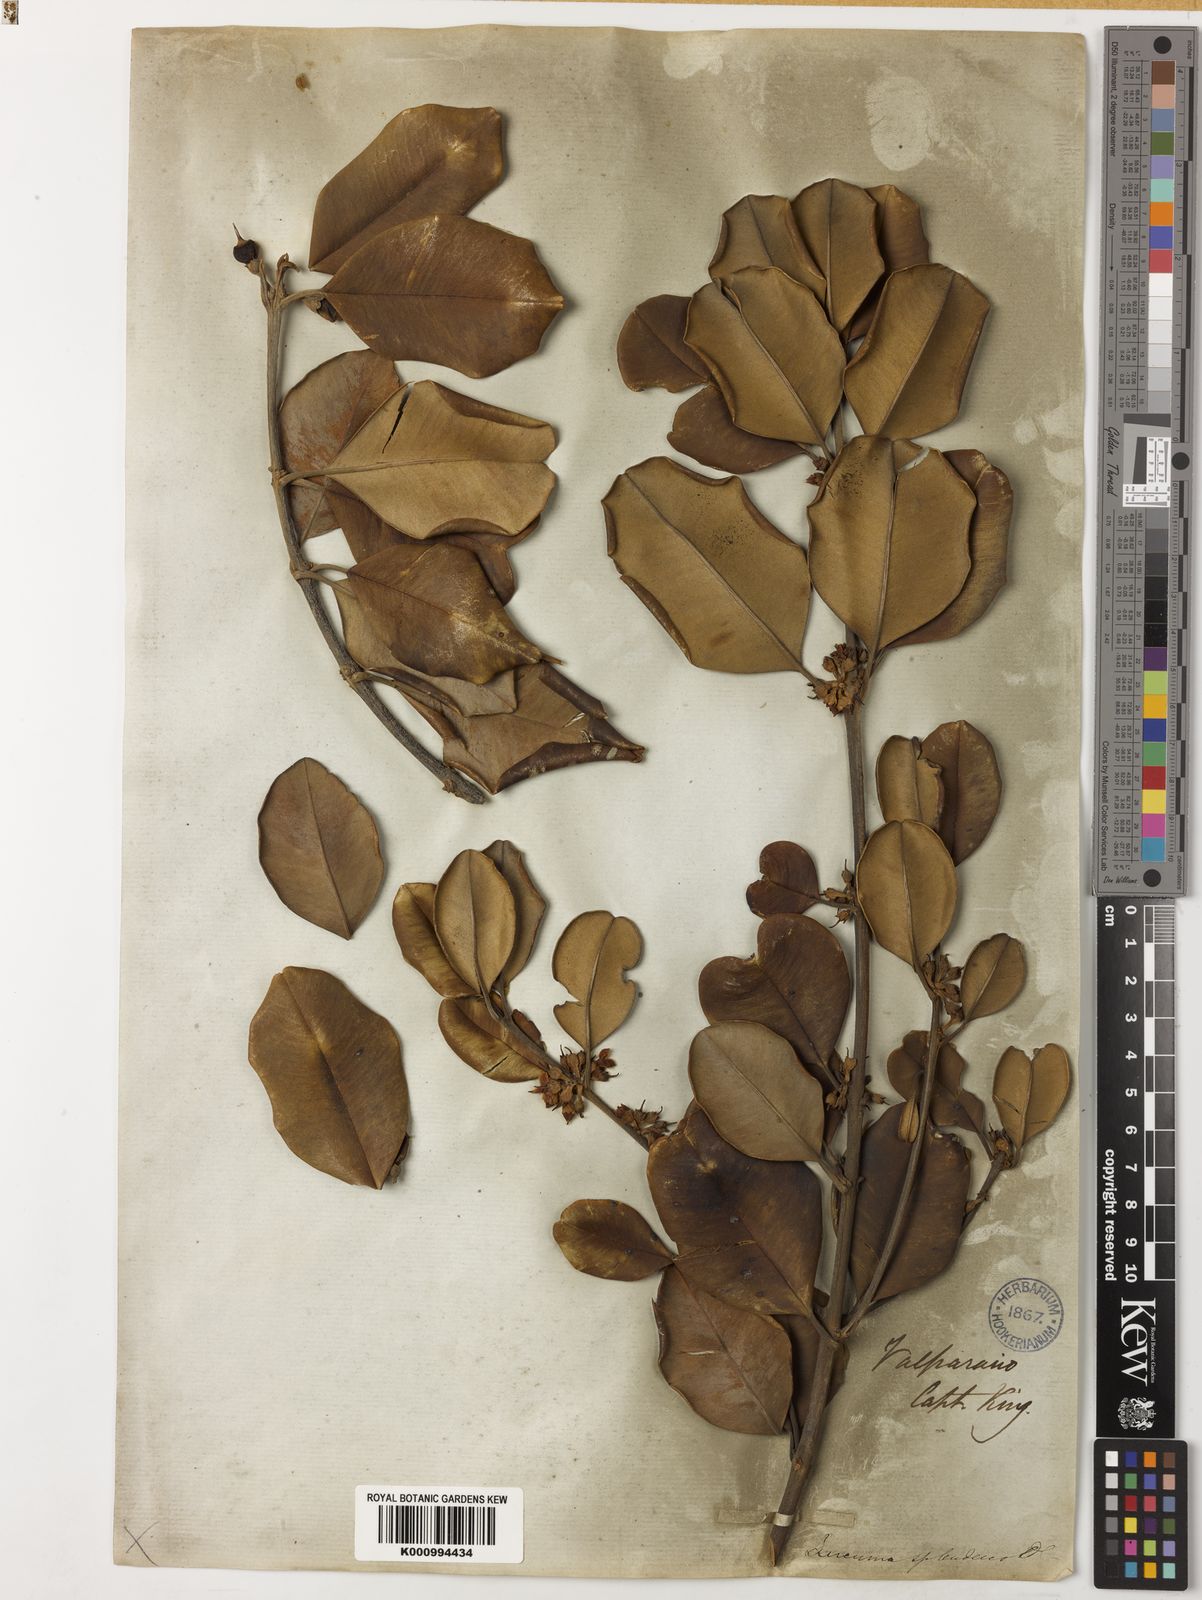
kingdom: Plantae
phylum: Tracheophyta
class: Magnoliopsida
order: Ericales
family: Sapotaceae
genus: Pouteria
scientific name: Pouteria valparadisaea
